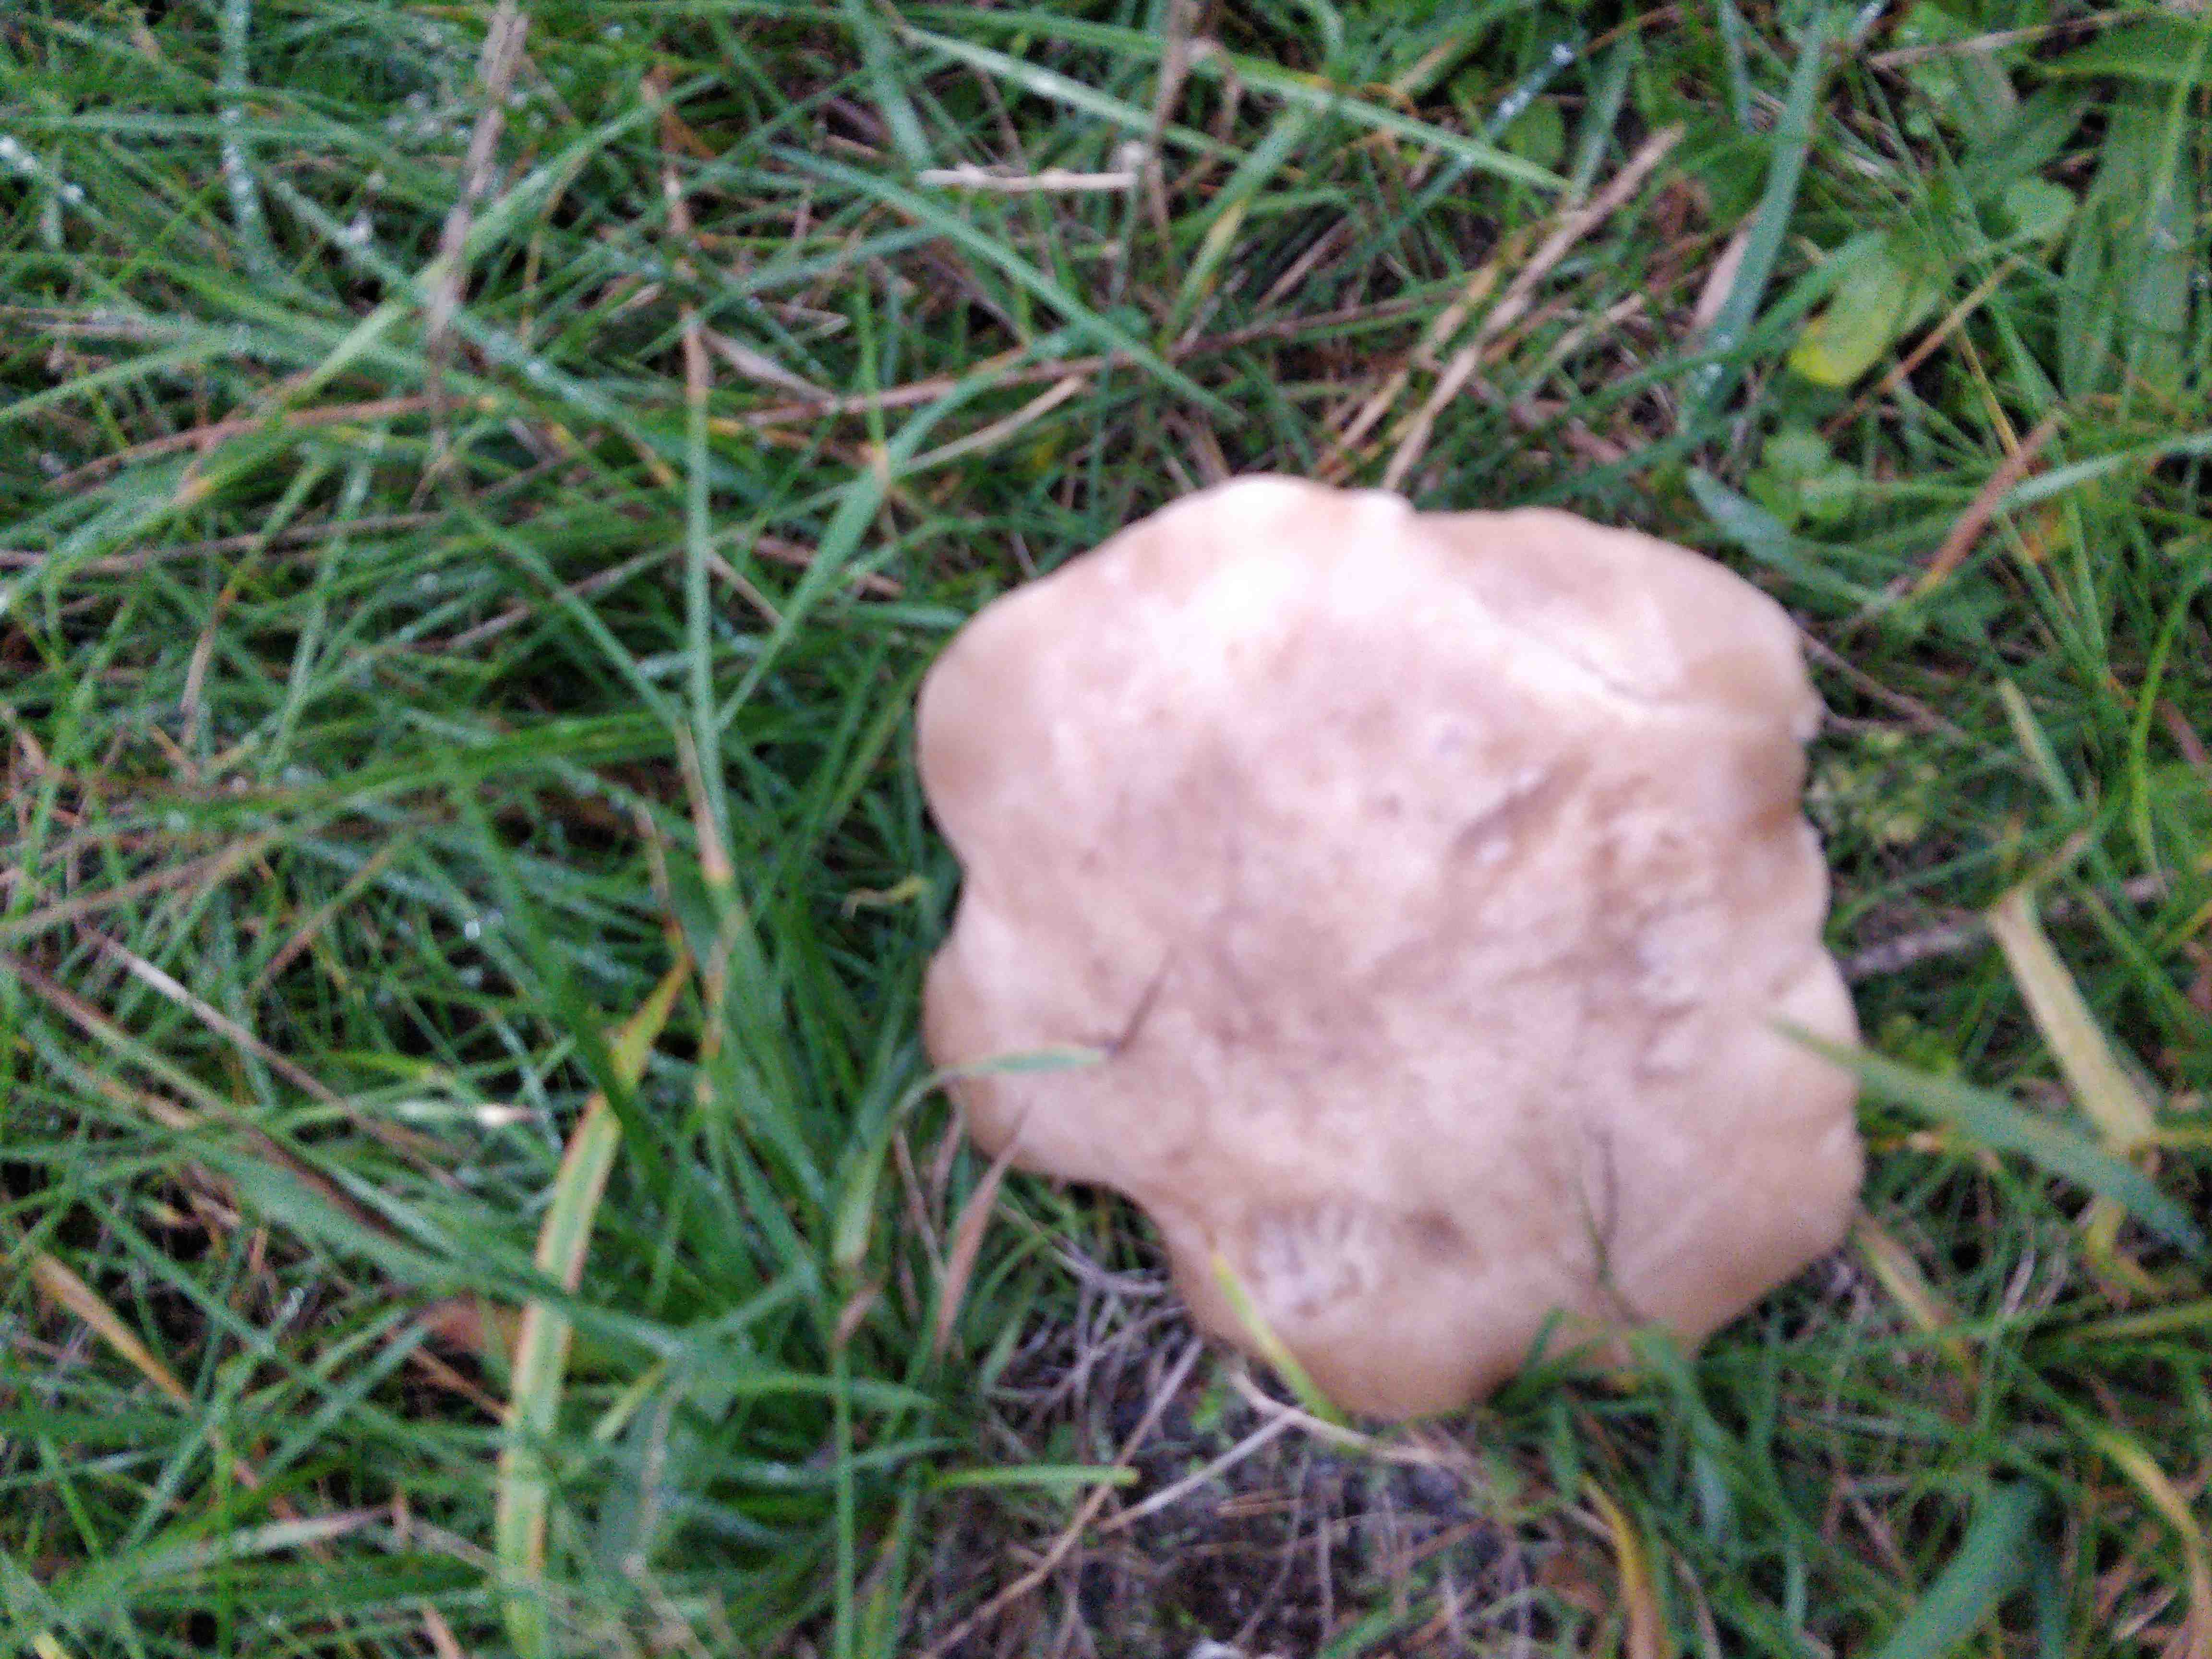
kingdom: Fungi
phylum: Basidiomycota
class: Agaricomycetes
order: Agaricales
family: Tricholomataceae
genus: Lepista
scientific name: Lepista personata
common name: bleg hekseringshat
